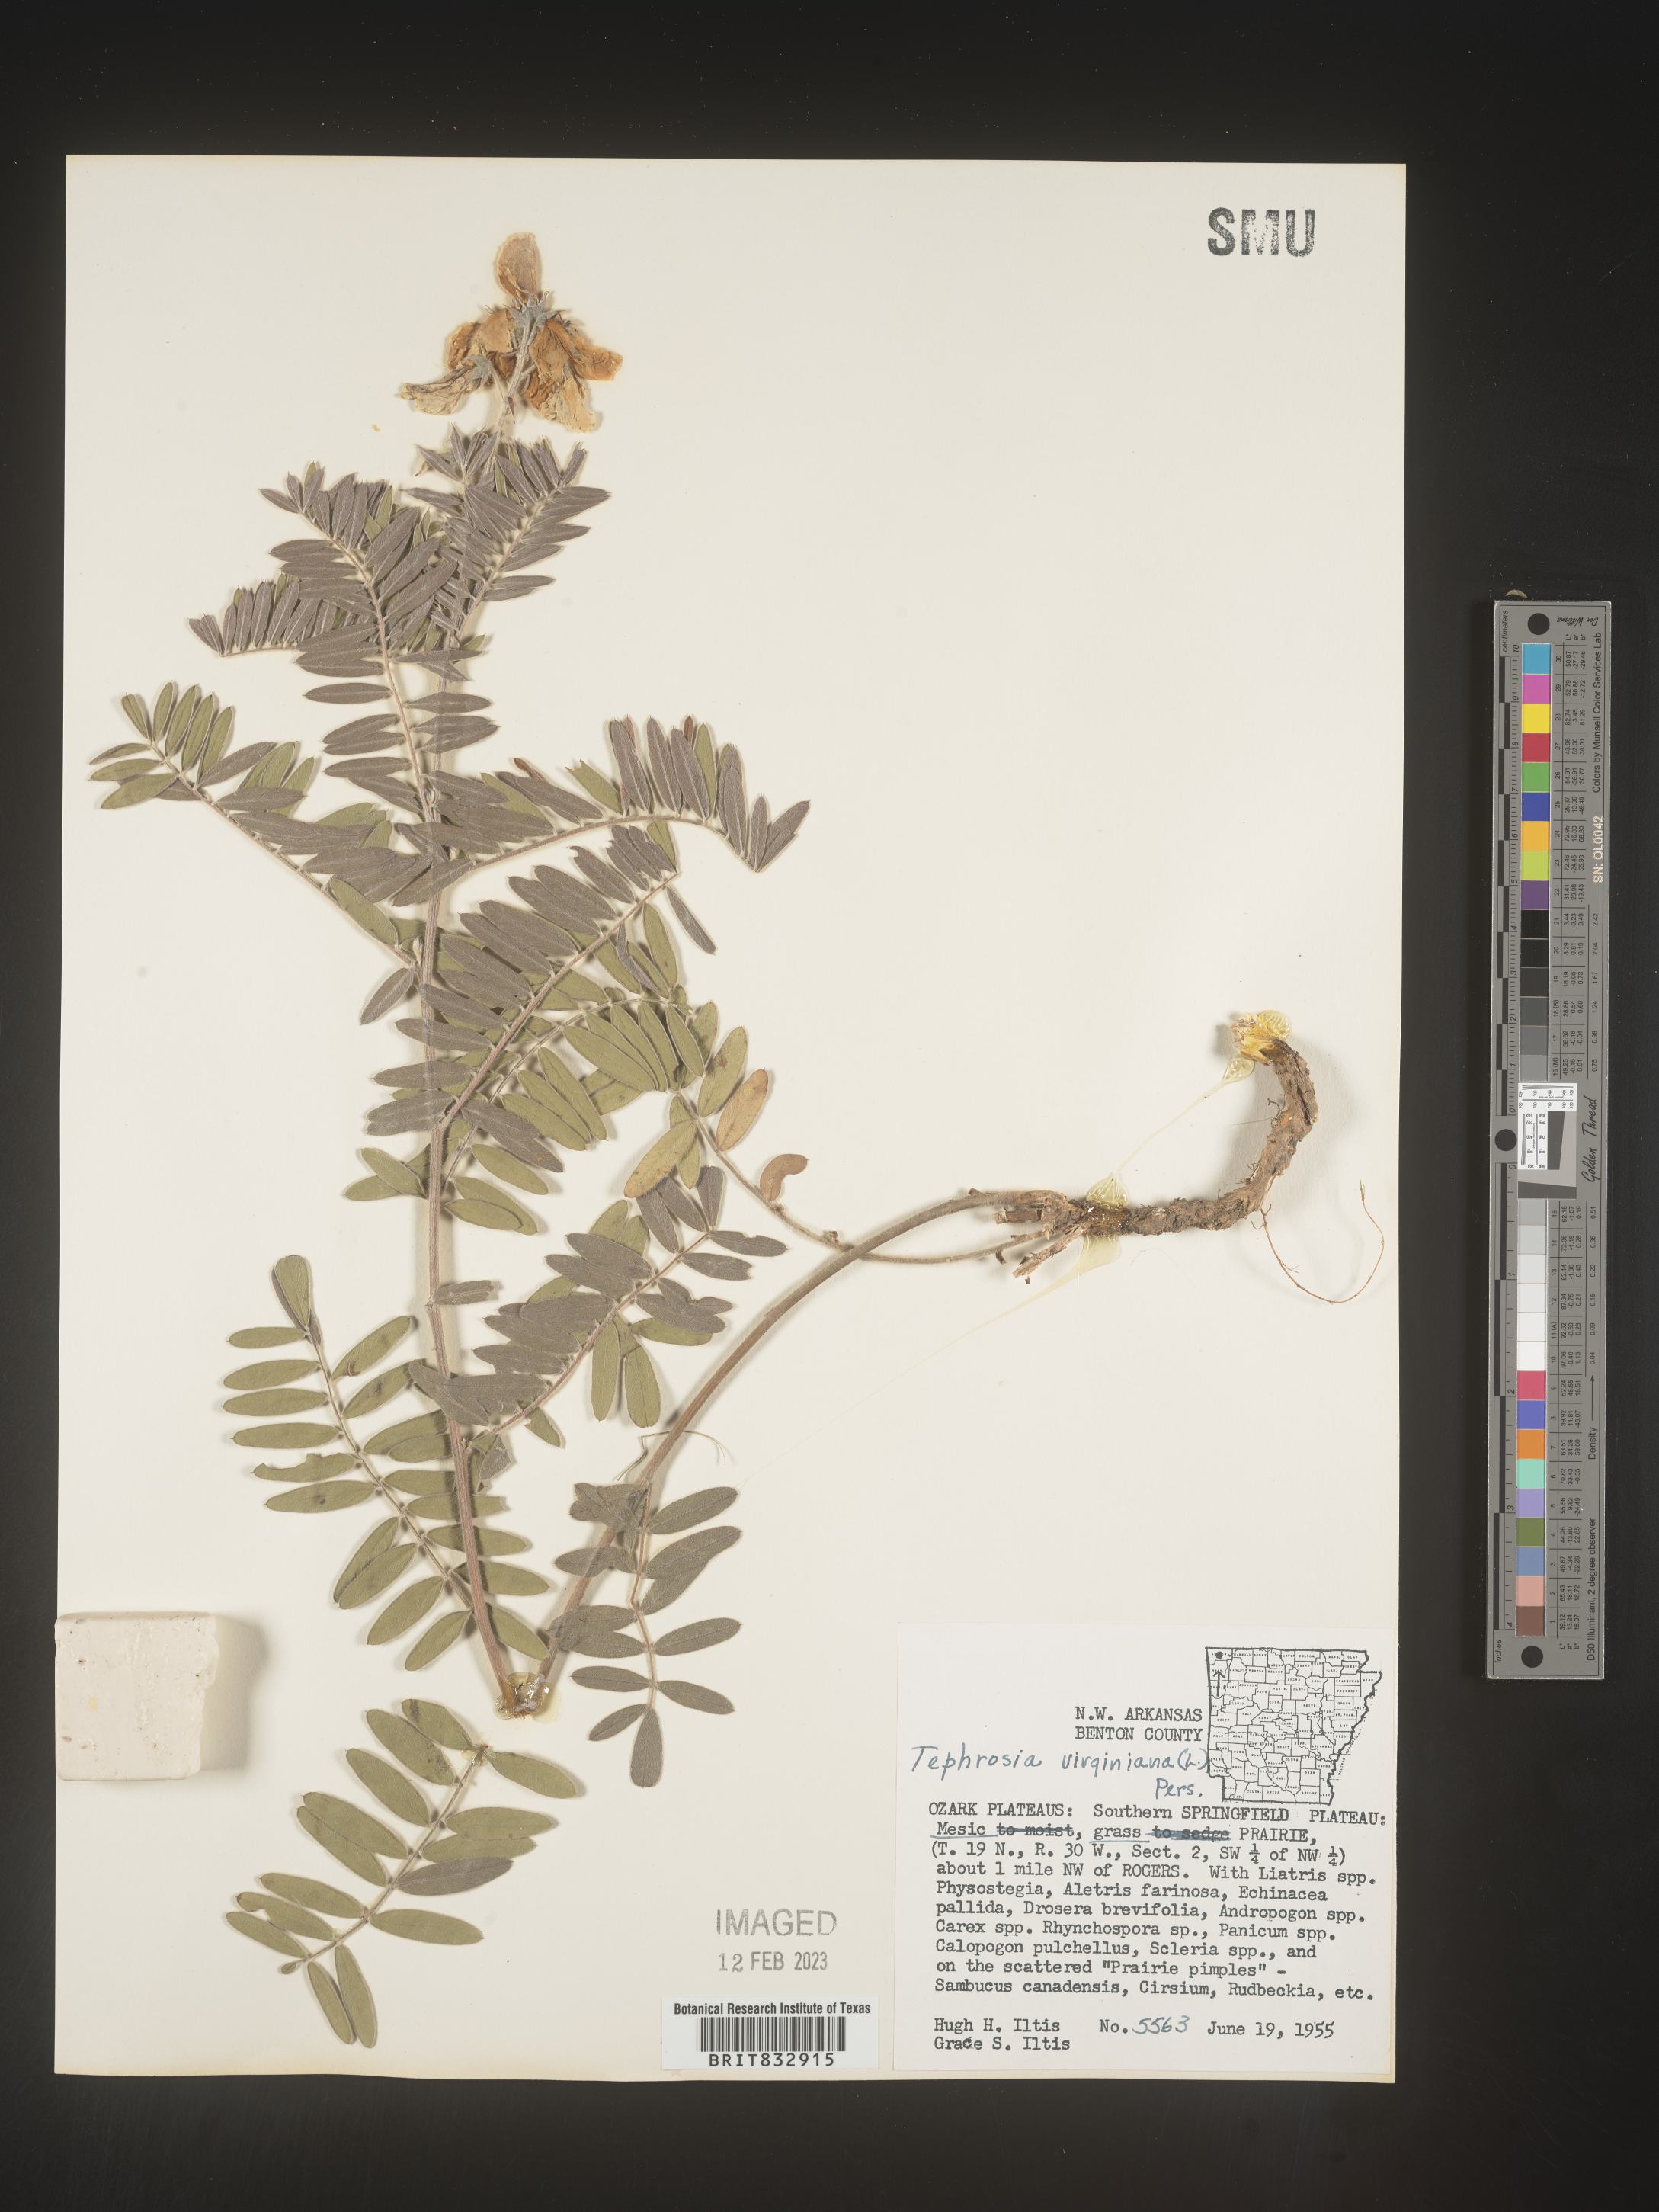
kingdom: Plantae
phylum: Tracheophyta
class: Magnoliopsida
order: Fabales
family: Fabaceae
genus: Tephrosia
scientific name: Tephrosia virginiana
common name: Rabbit-pea
